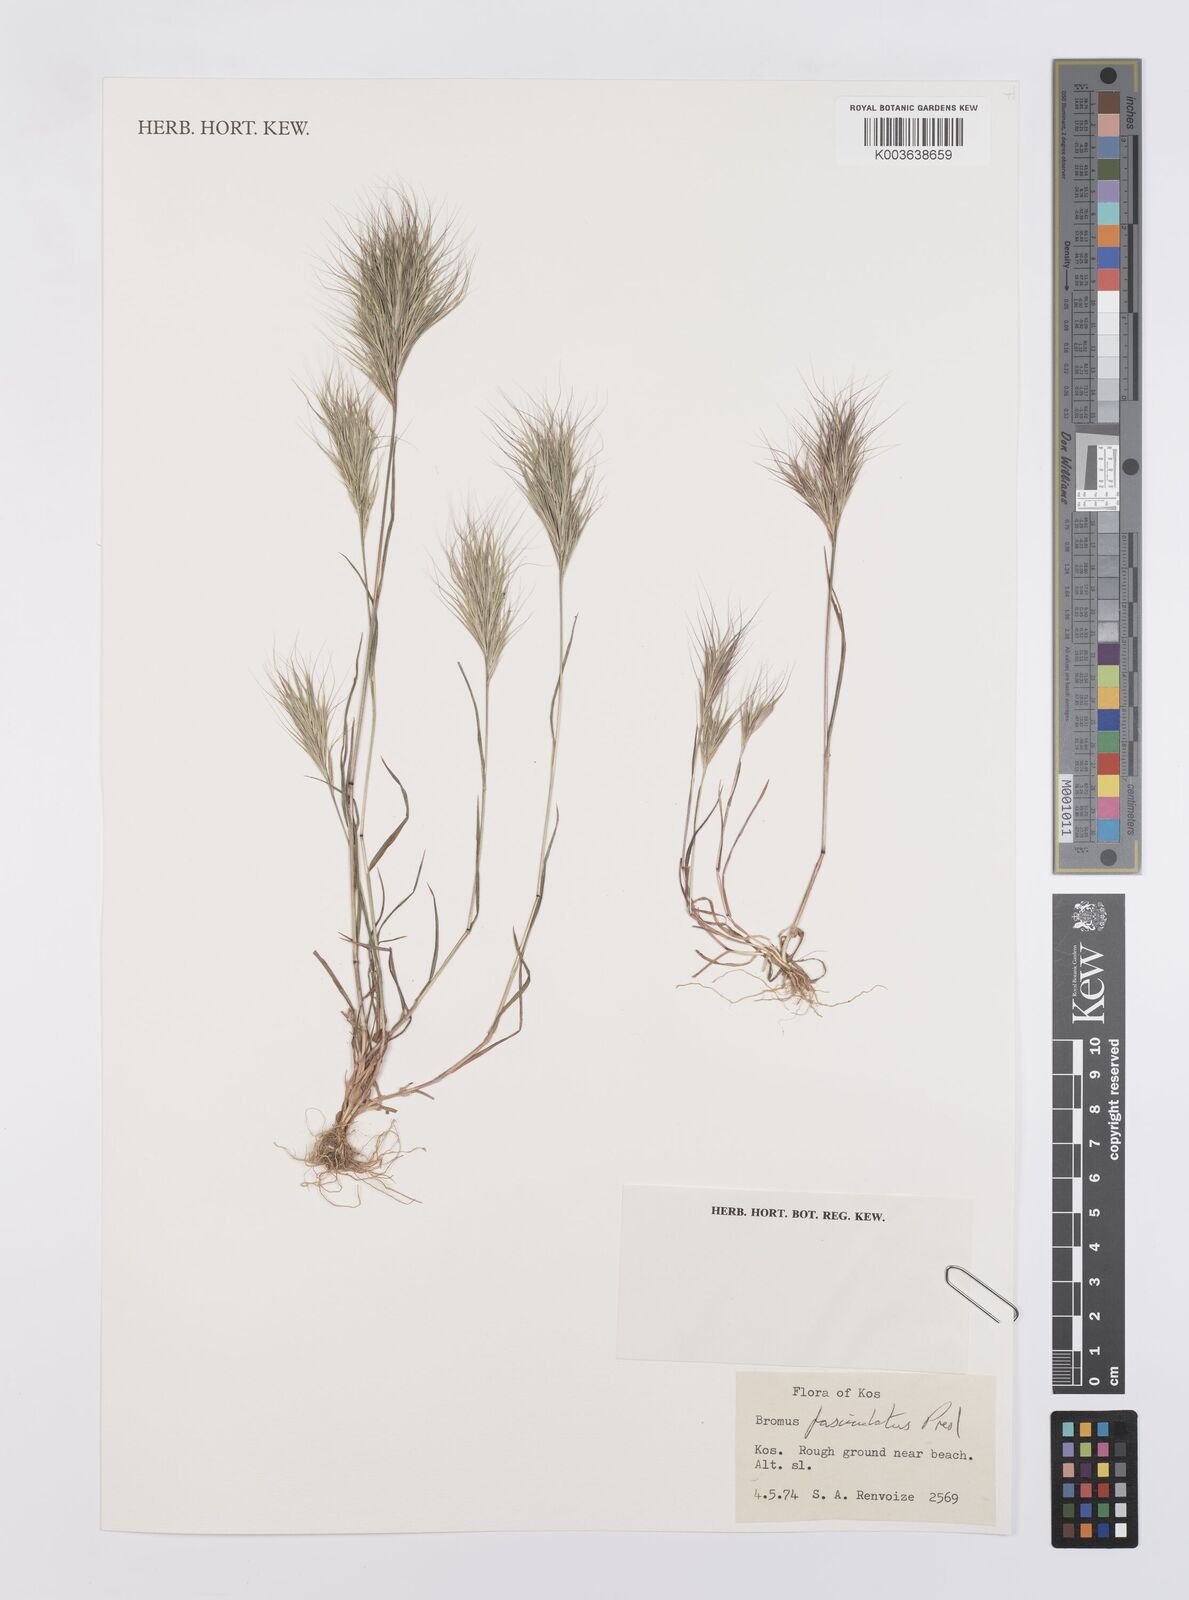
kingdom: Plantae
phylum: Tracheophyta
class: Liliopsida
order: Poales
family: Poaceae
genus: Bromus
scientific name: Bromus fasciculatus
